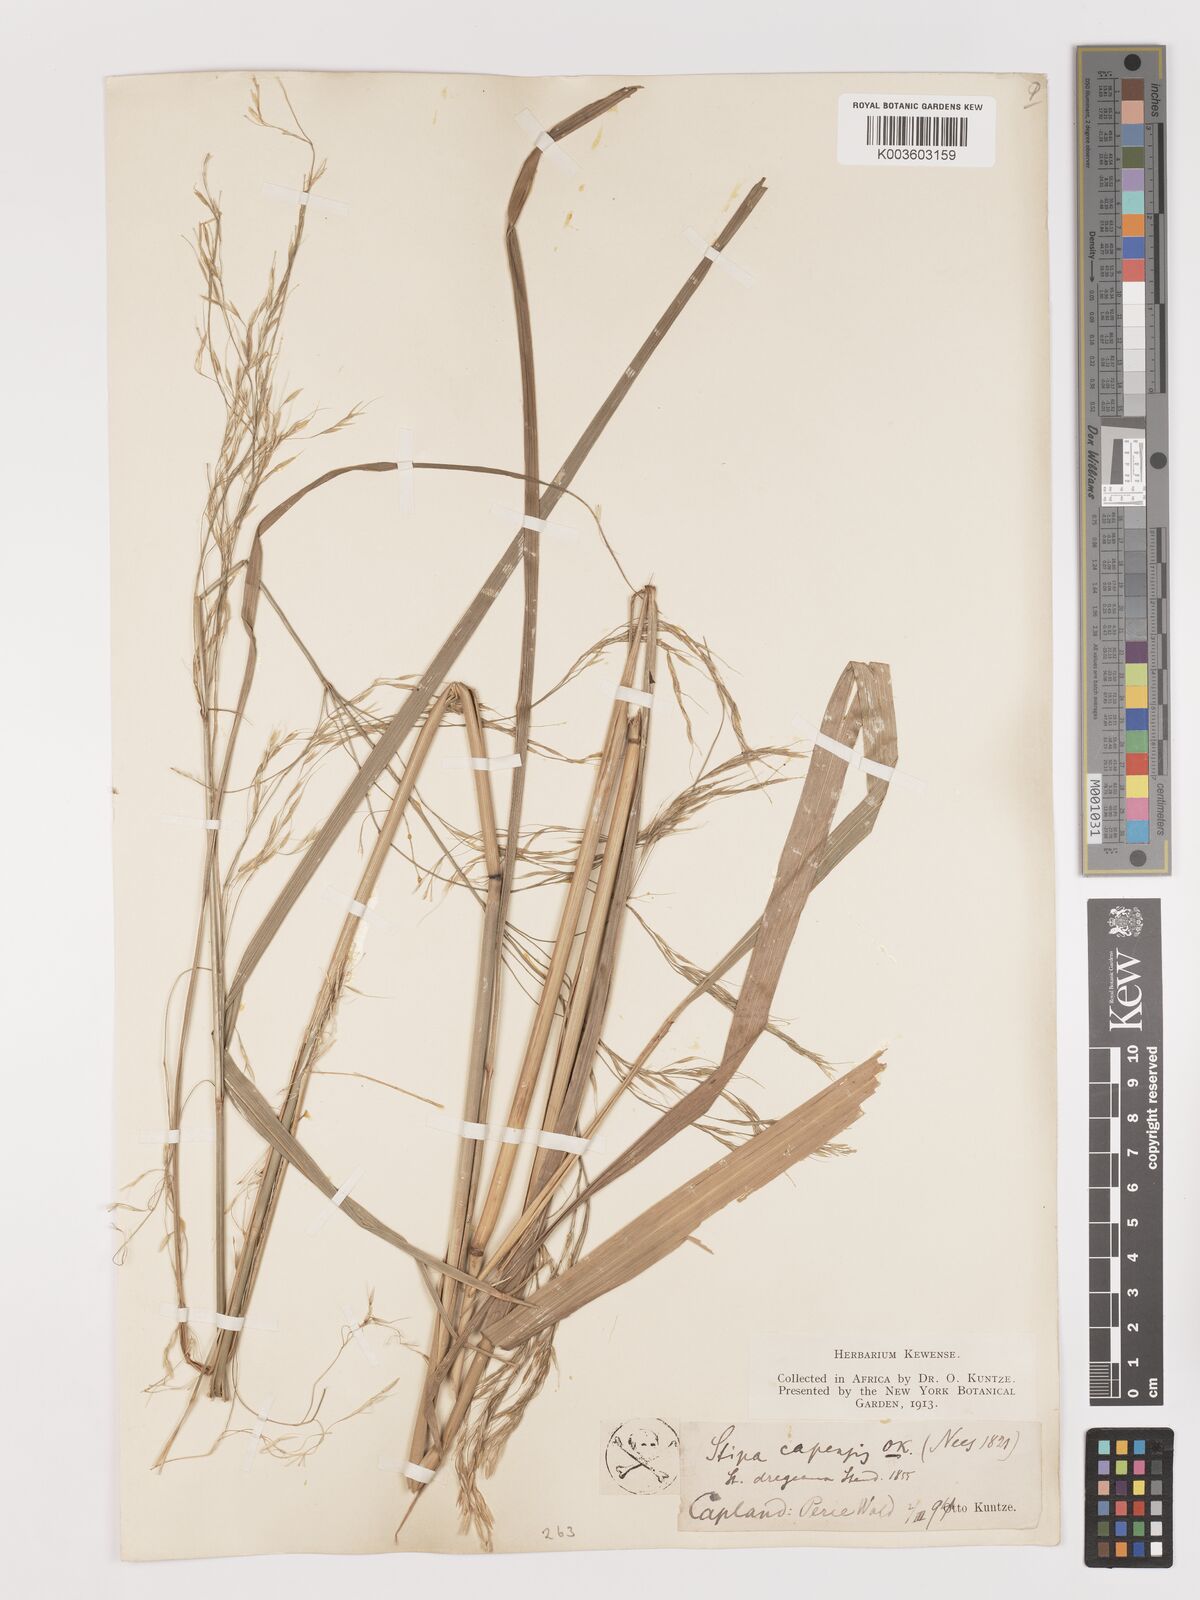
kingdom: Plantae
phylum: Tracheophyta
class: Liliopsida
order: Poales
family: Poaceae
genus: Stipa
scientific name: Stipa dregeana
